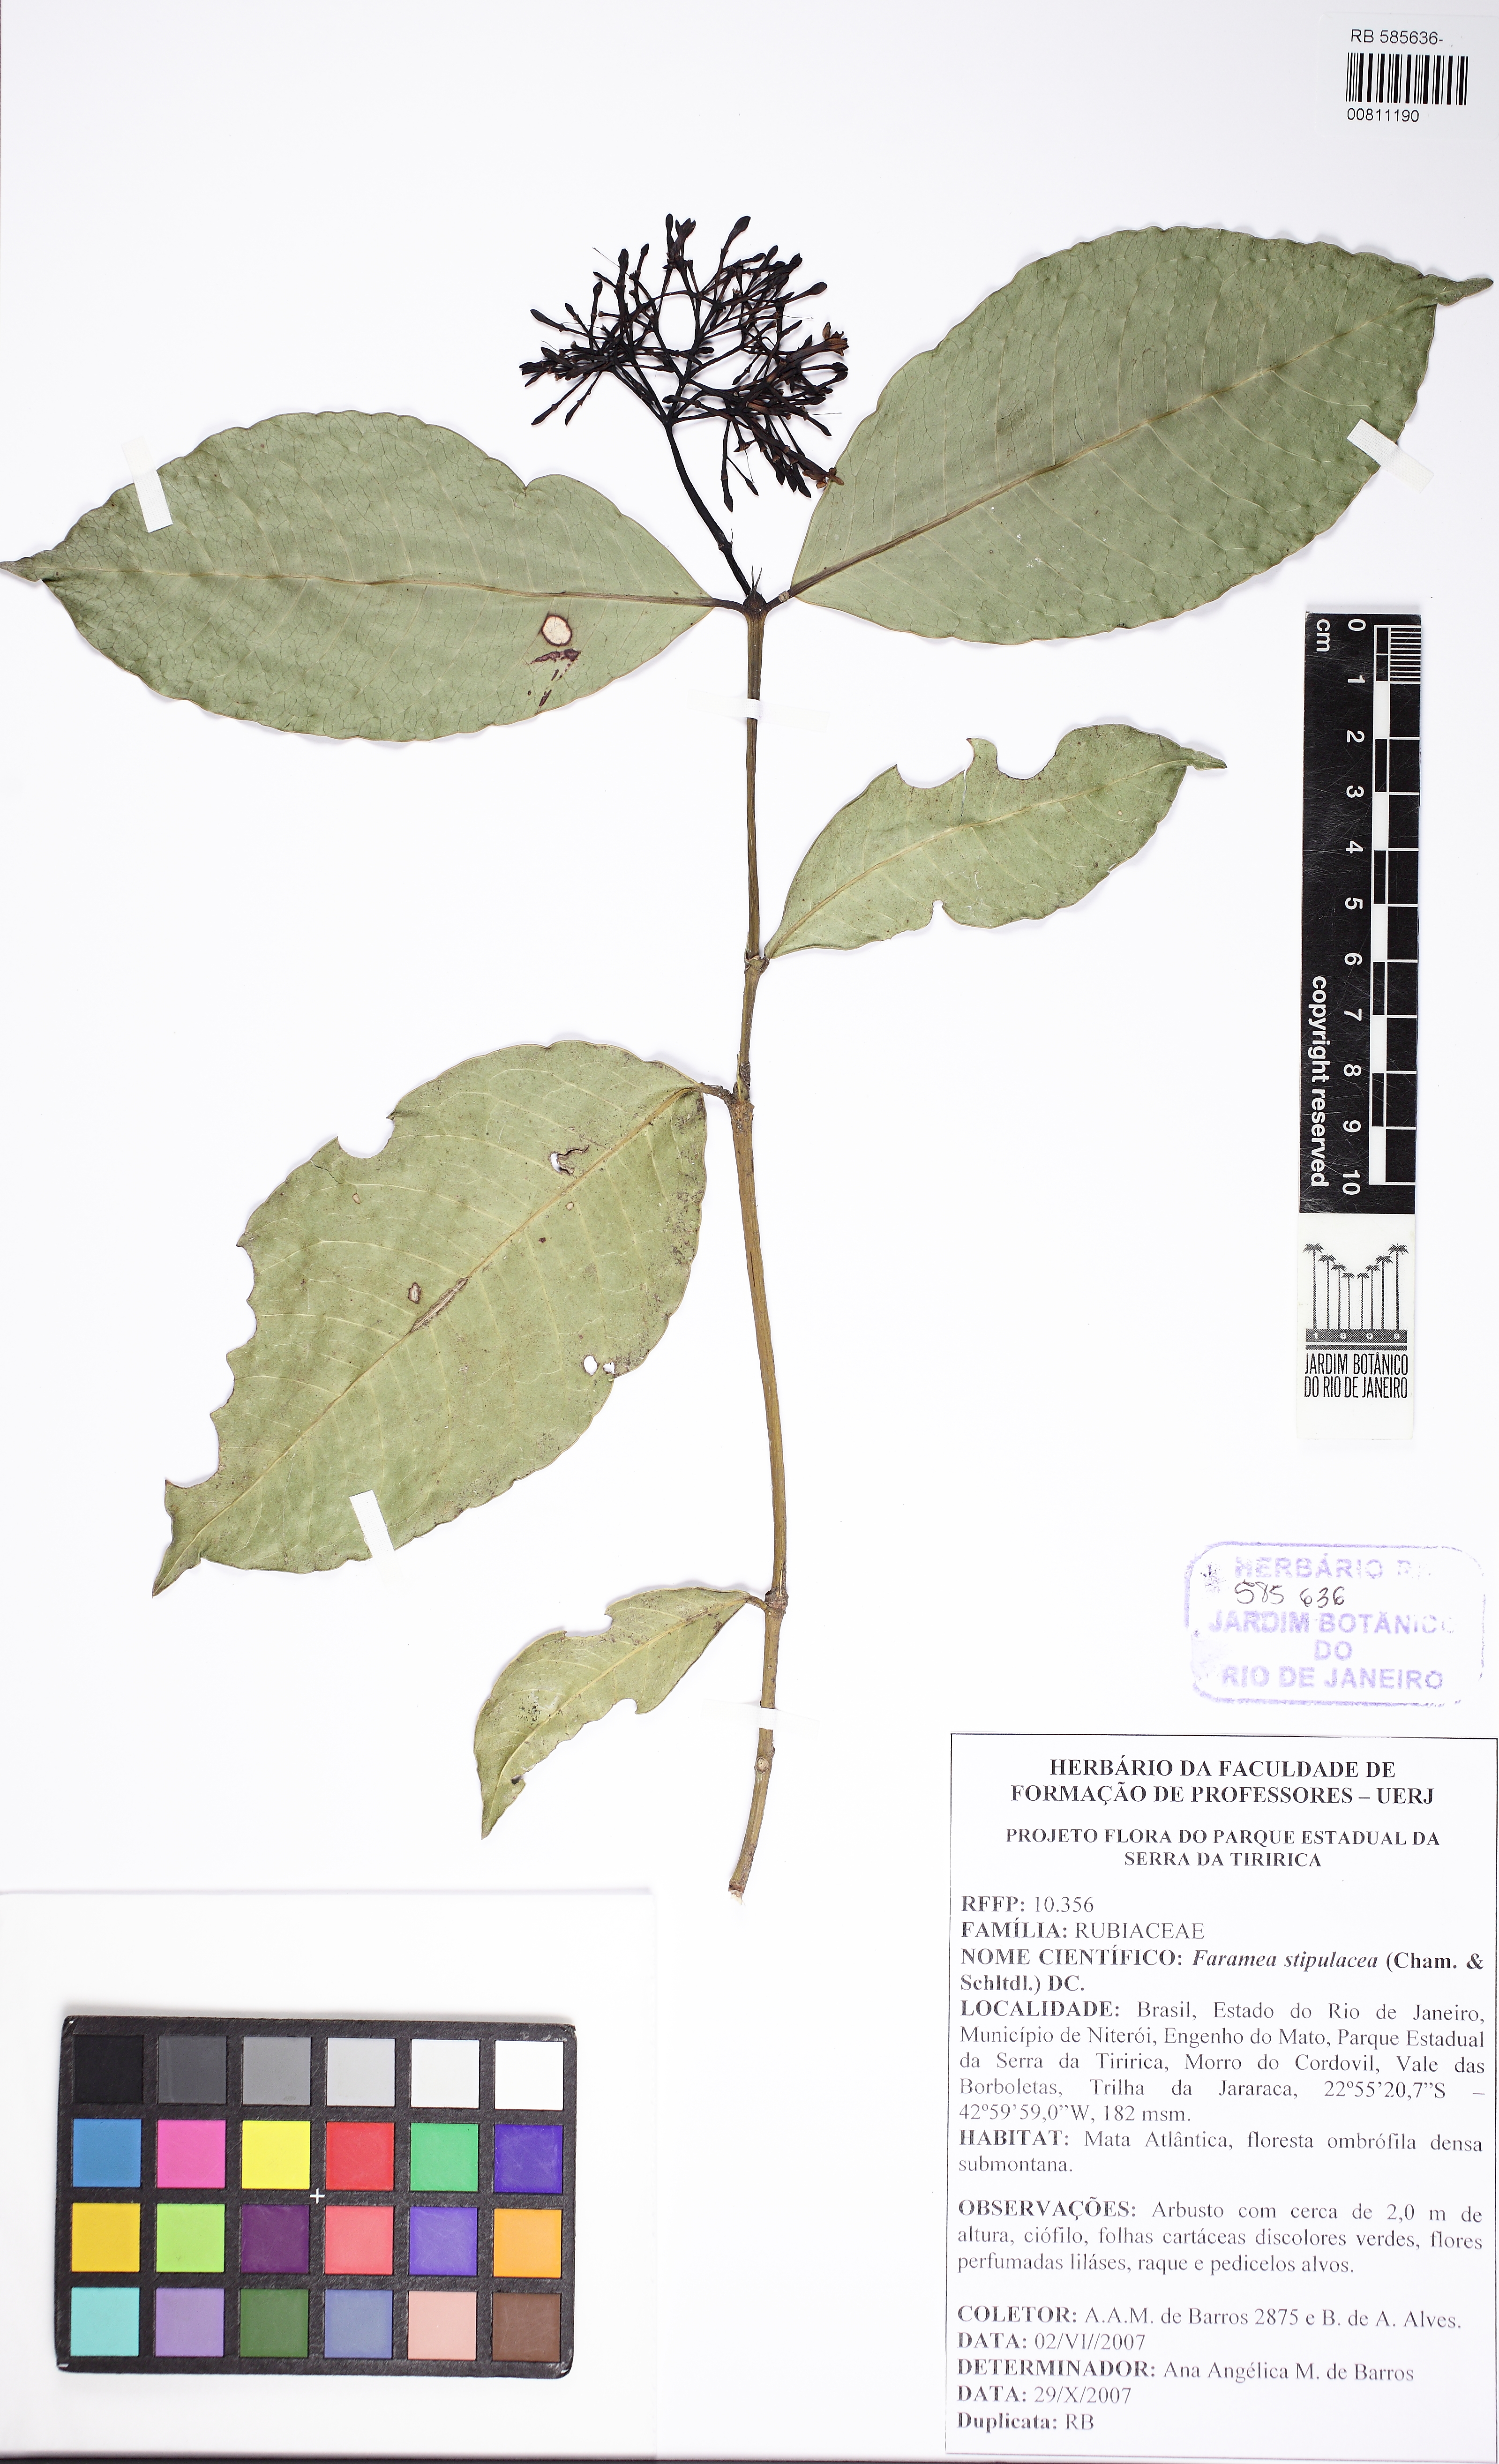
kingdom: Plantae
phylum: Tracheophyta
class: Magnoliopsida
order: Gentianales
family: Rubiaceae
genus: Faramea
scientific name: Faramea stipulacea
